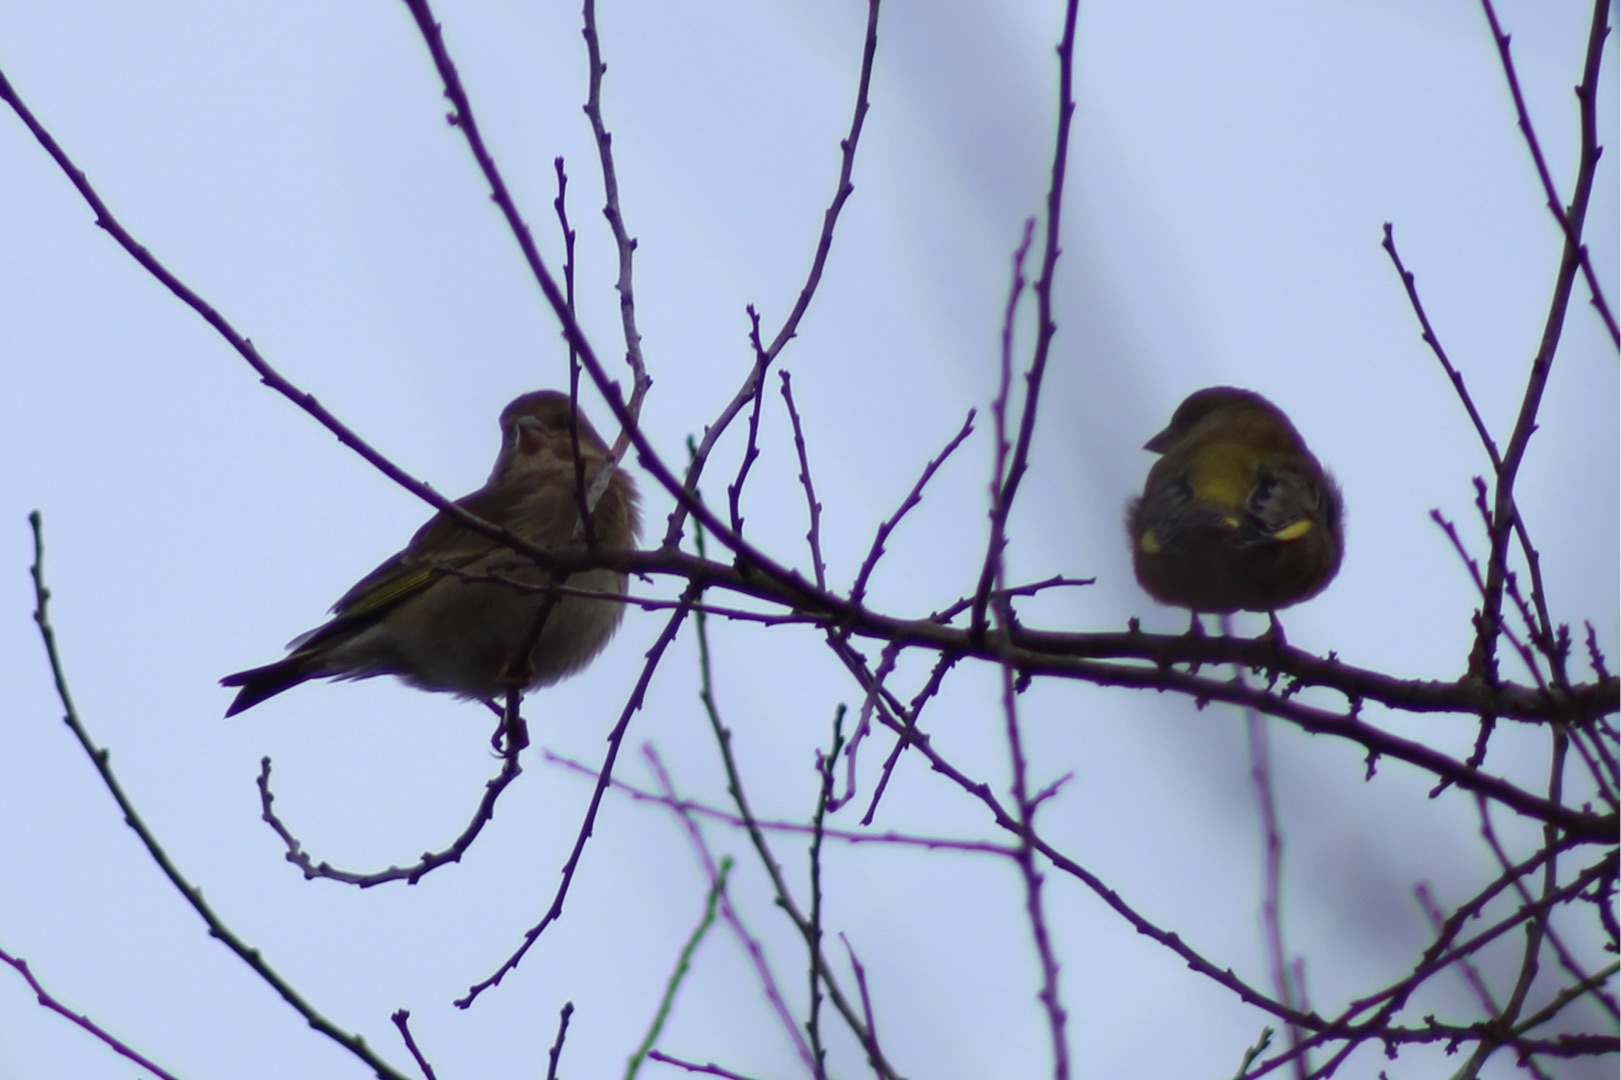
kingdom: Plantae
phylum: Tracheophyta
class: Liliopsida
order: Poales
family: Poaceae
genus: Chloris
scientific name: Chloris chloris
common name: Grønirisk
